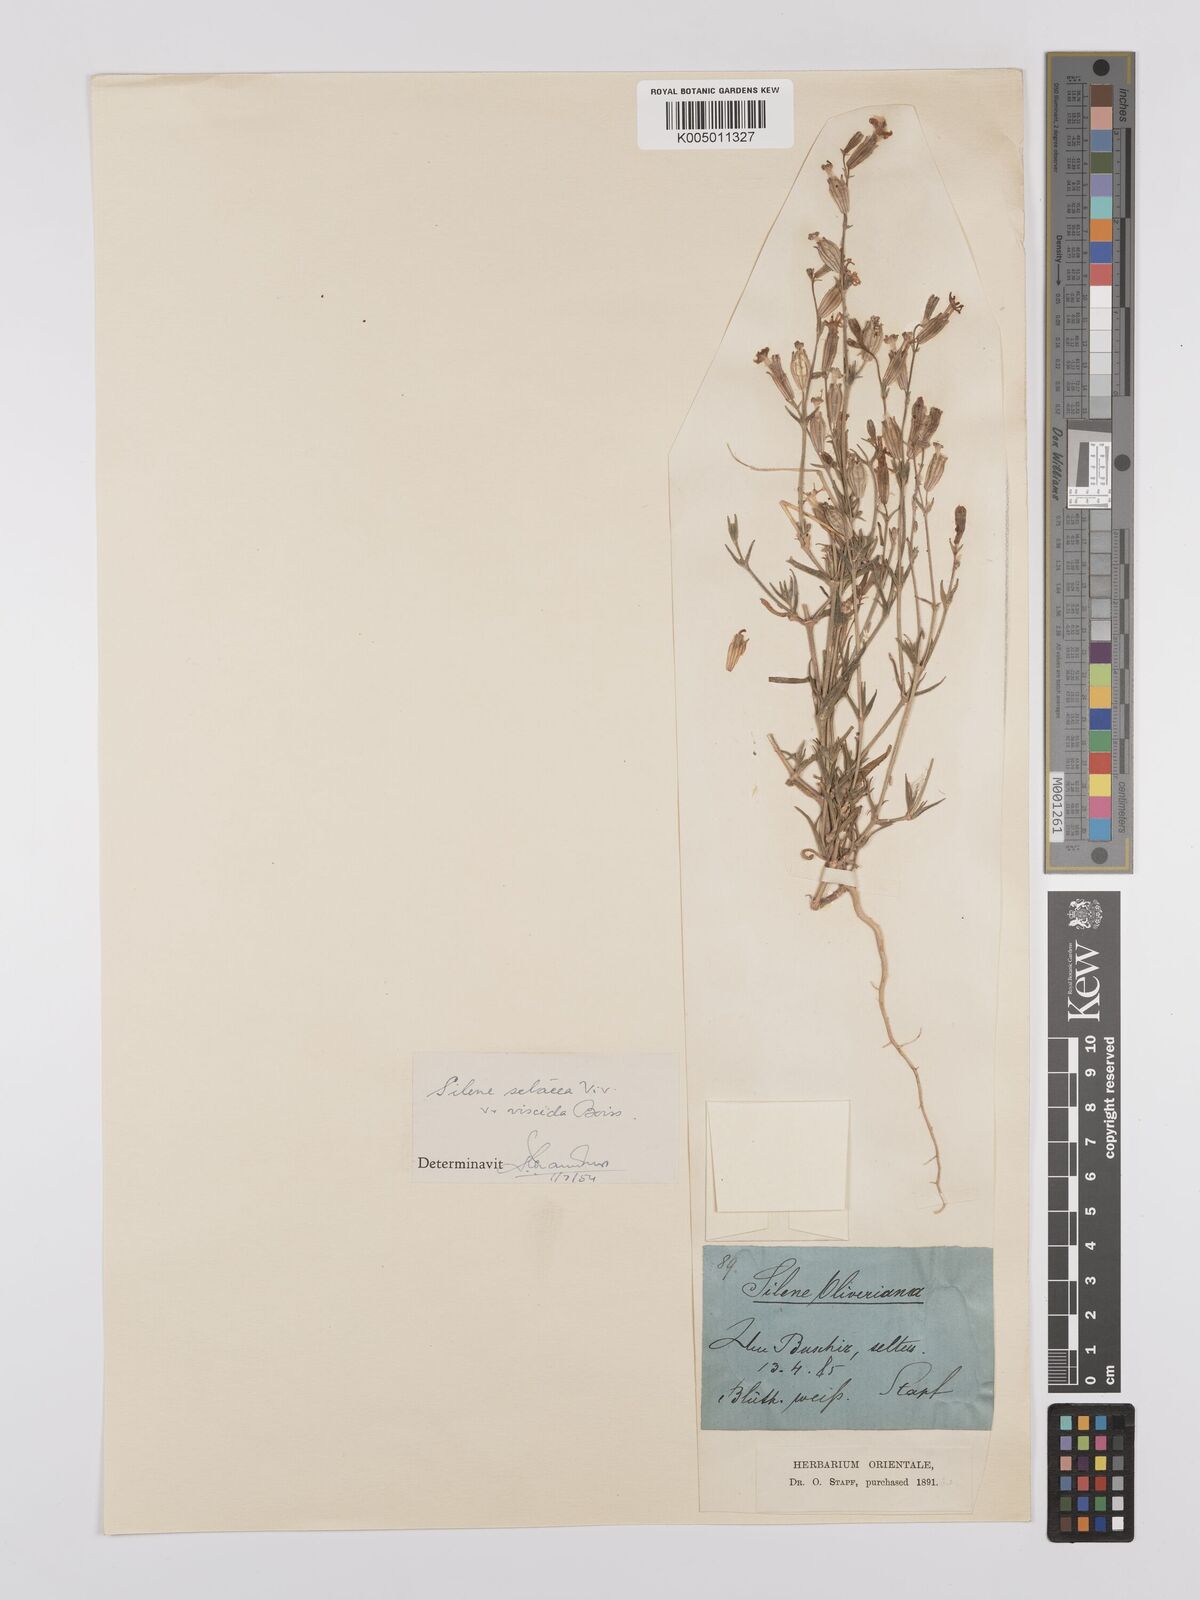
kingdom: Plantae
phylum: Tracheophyta
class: Magnoliopsida
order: Caryophyllales
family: Caryophyllaceae
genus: Silene
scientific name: Silene arabica
